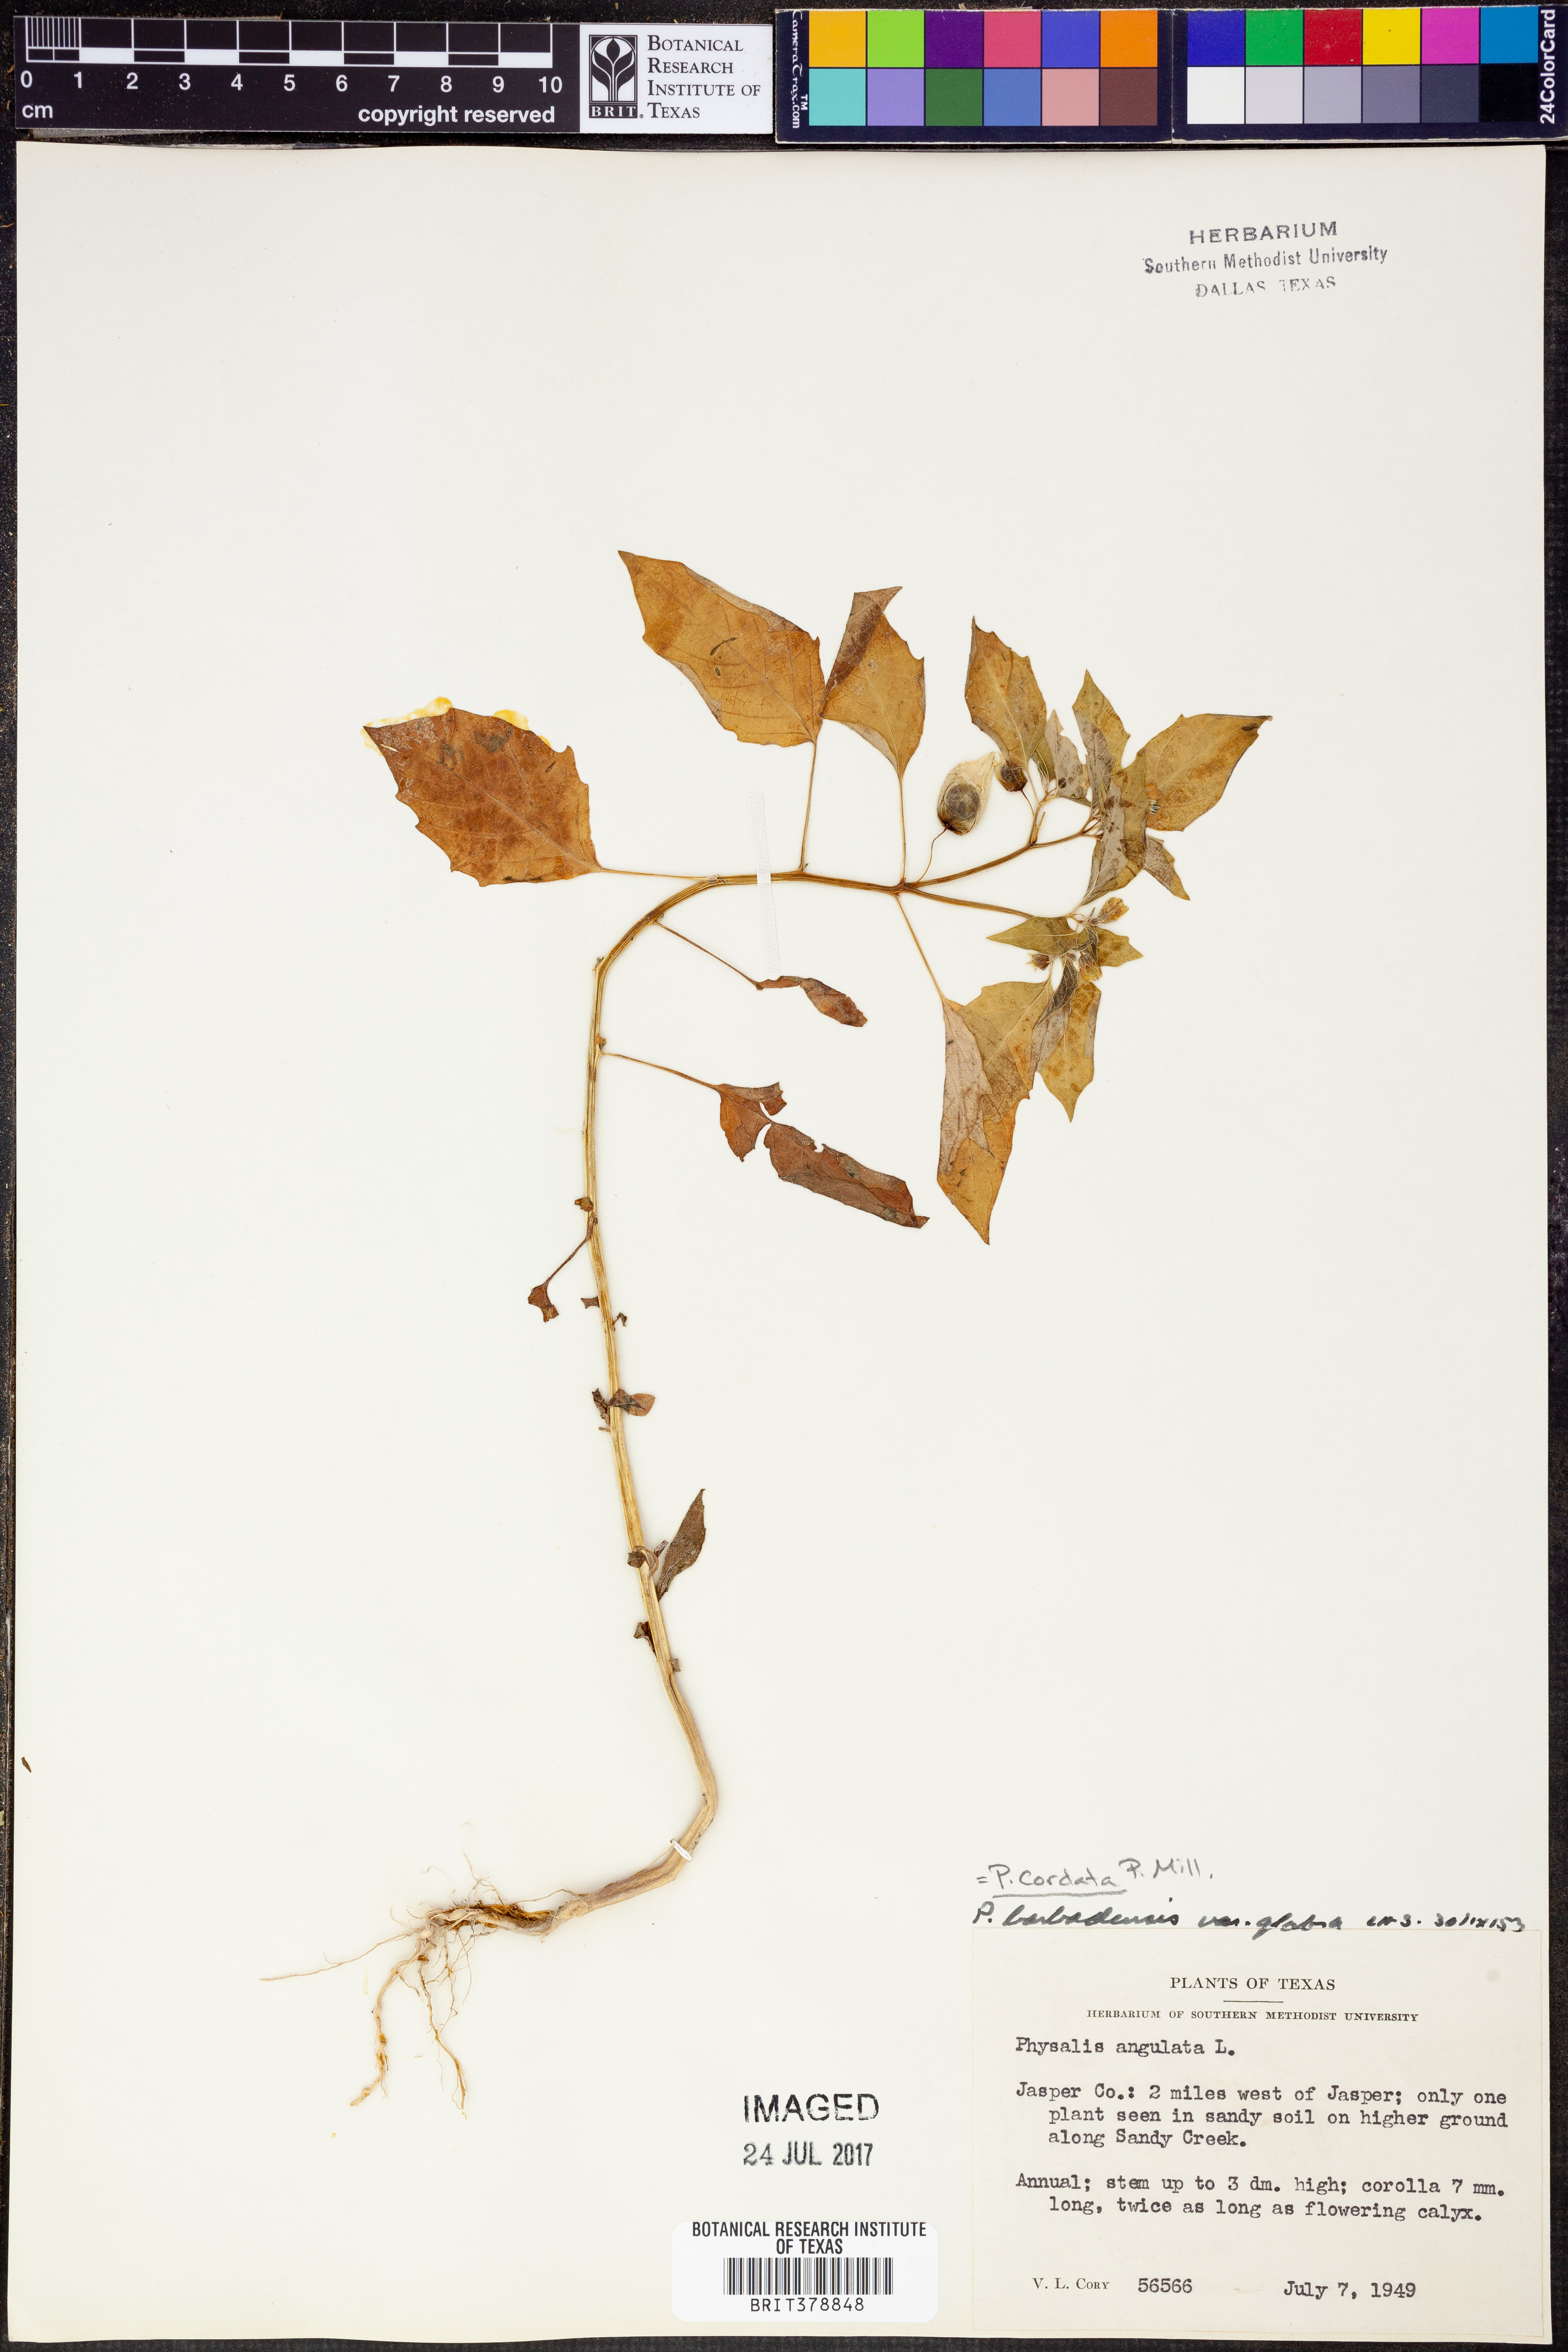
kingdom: Plantae
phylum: Tracheophyta
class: Magnoliopsida
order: Solanales
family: Solanaceae
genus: Physalis
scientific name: Physalis cordata
